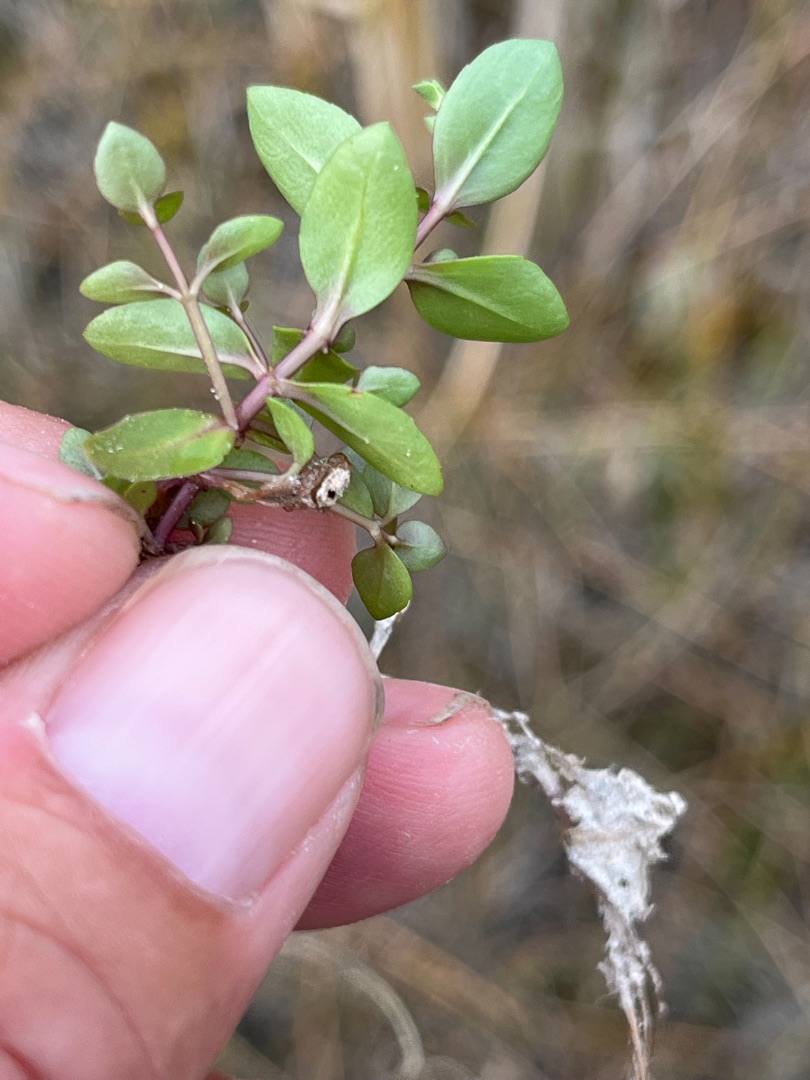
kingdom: Plantae
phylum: Tracheophyta
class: Magnoliopsida
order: Lamiales
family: Plantaginaceae
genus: Veronica
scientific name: Veronica beccabunga
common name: Tykbladet ærenpris
